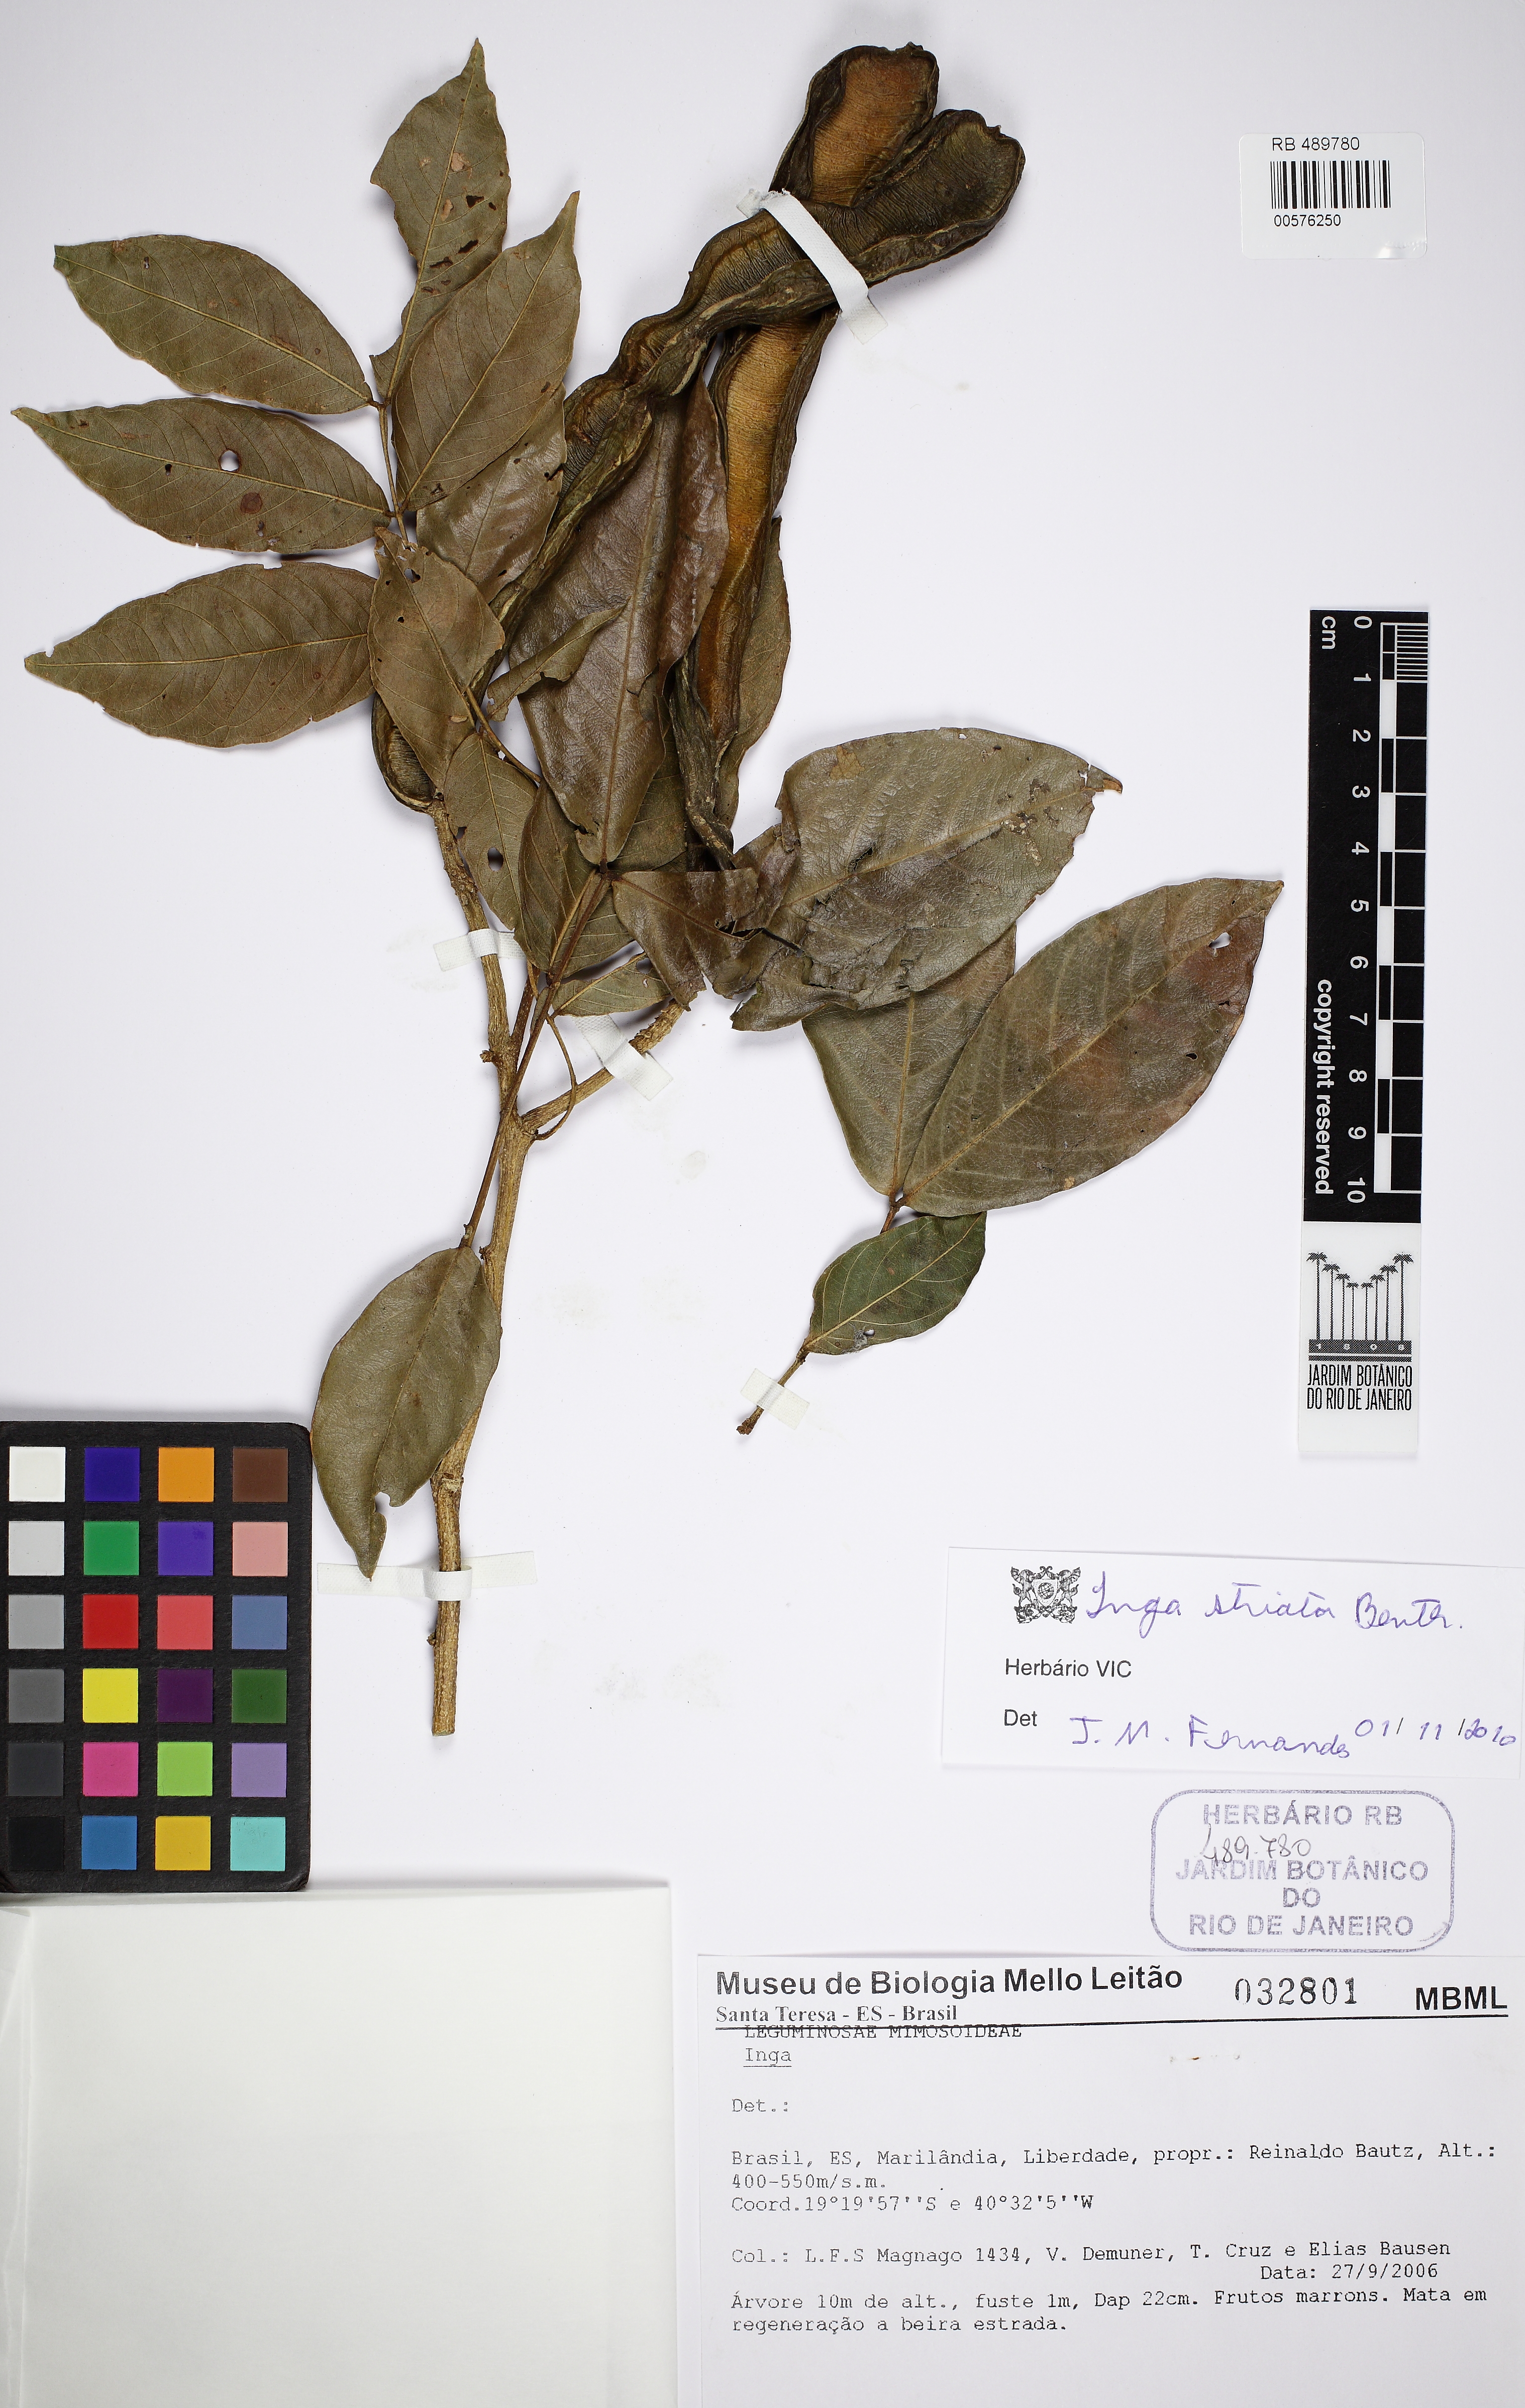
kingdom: Plantae
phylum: Tracheophyta
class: Magnoliopsida
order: Fabales
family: Fabaceae
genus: Inga
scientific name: Inga striata
